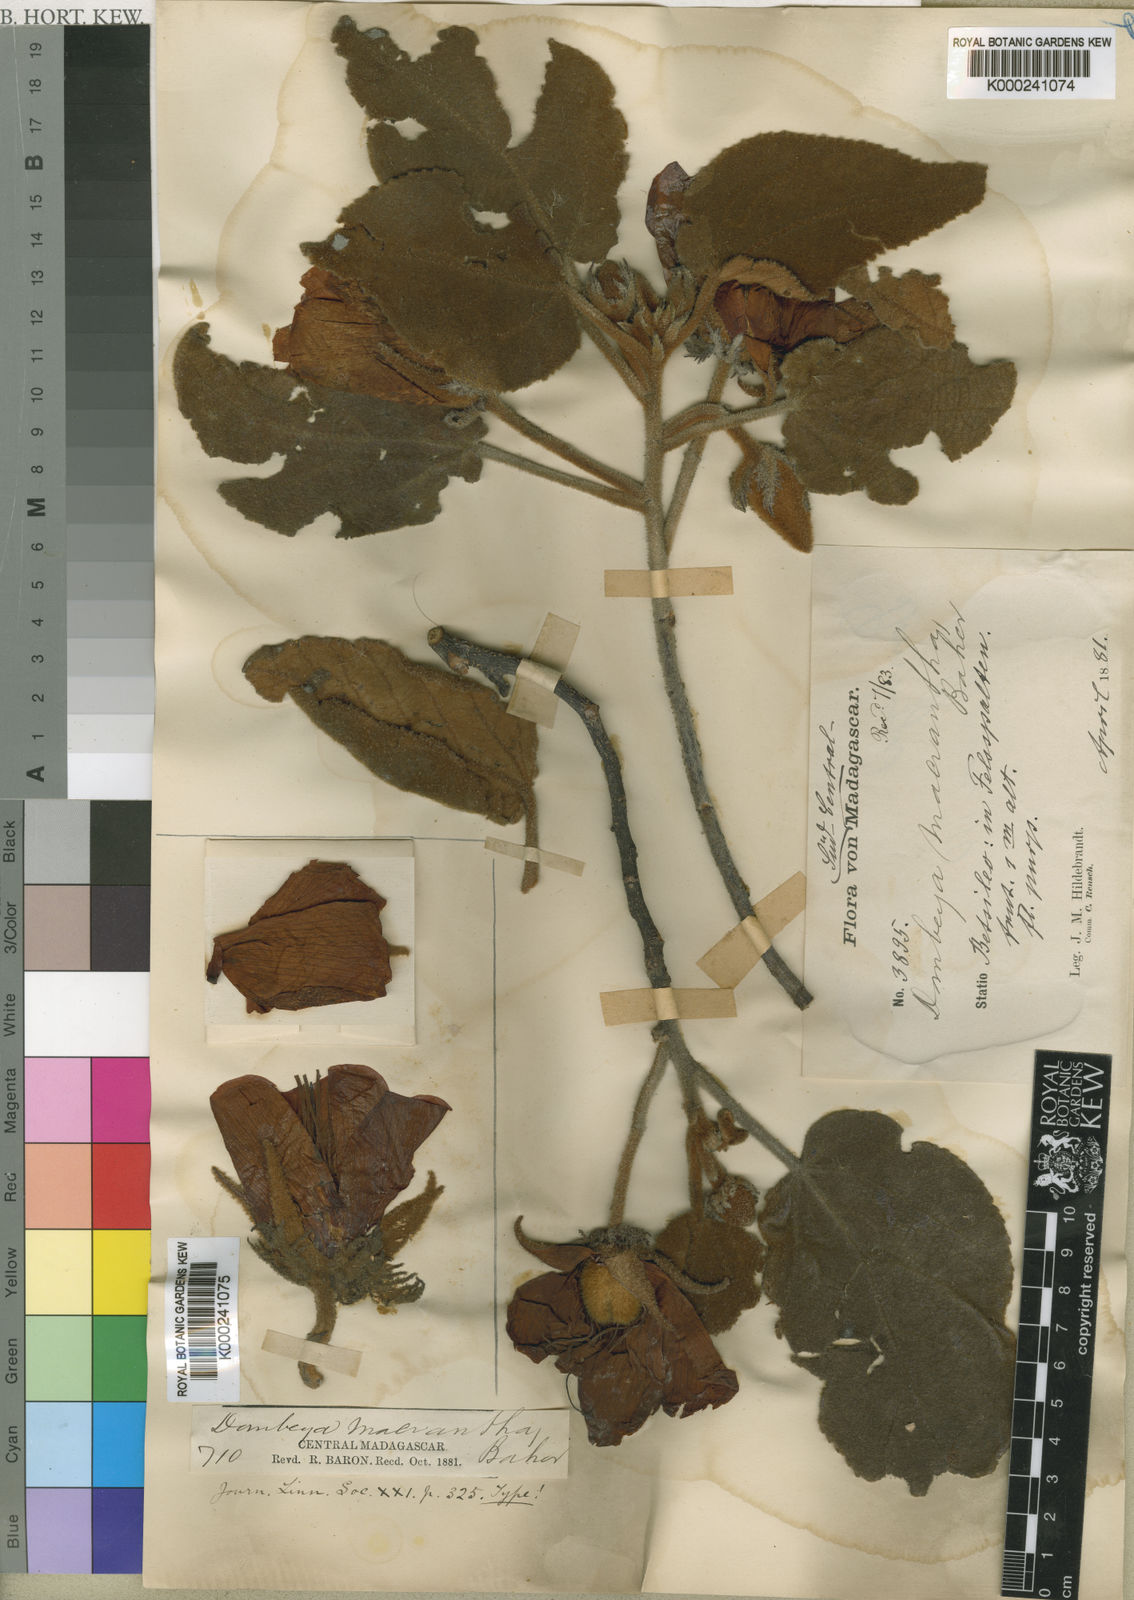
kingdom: Plantae
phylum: Tracheophyta
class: Magnoliopsida
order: Malvales
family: Malvaceae
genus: Andringitra
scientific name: Andringitra macrantha
